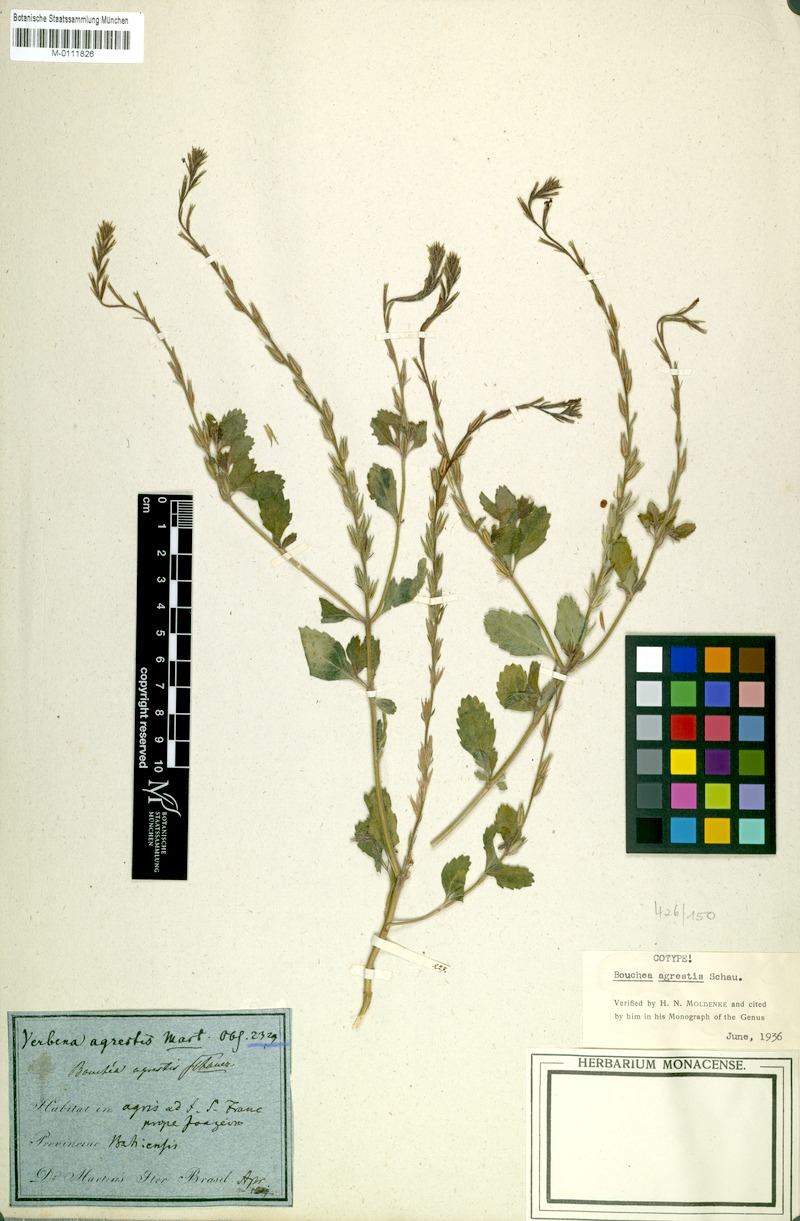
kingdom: Plantae
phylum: Tracheophyta
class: Magnoliopsida
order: Lamiales
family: Verbenaceae
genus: Bouchea
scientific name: Bouchea agrestis
